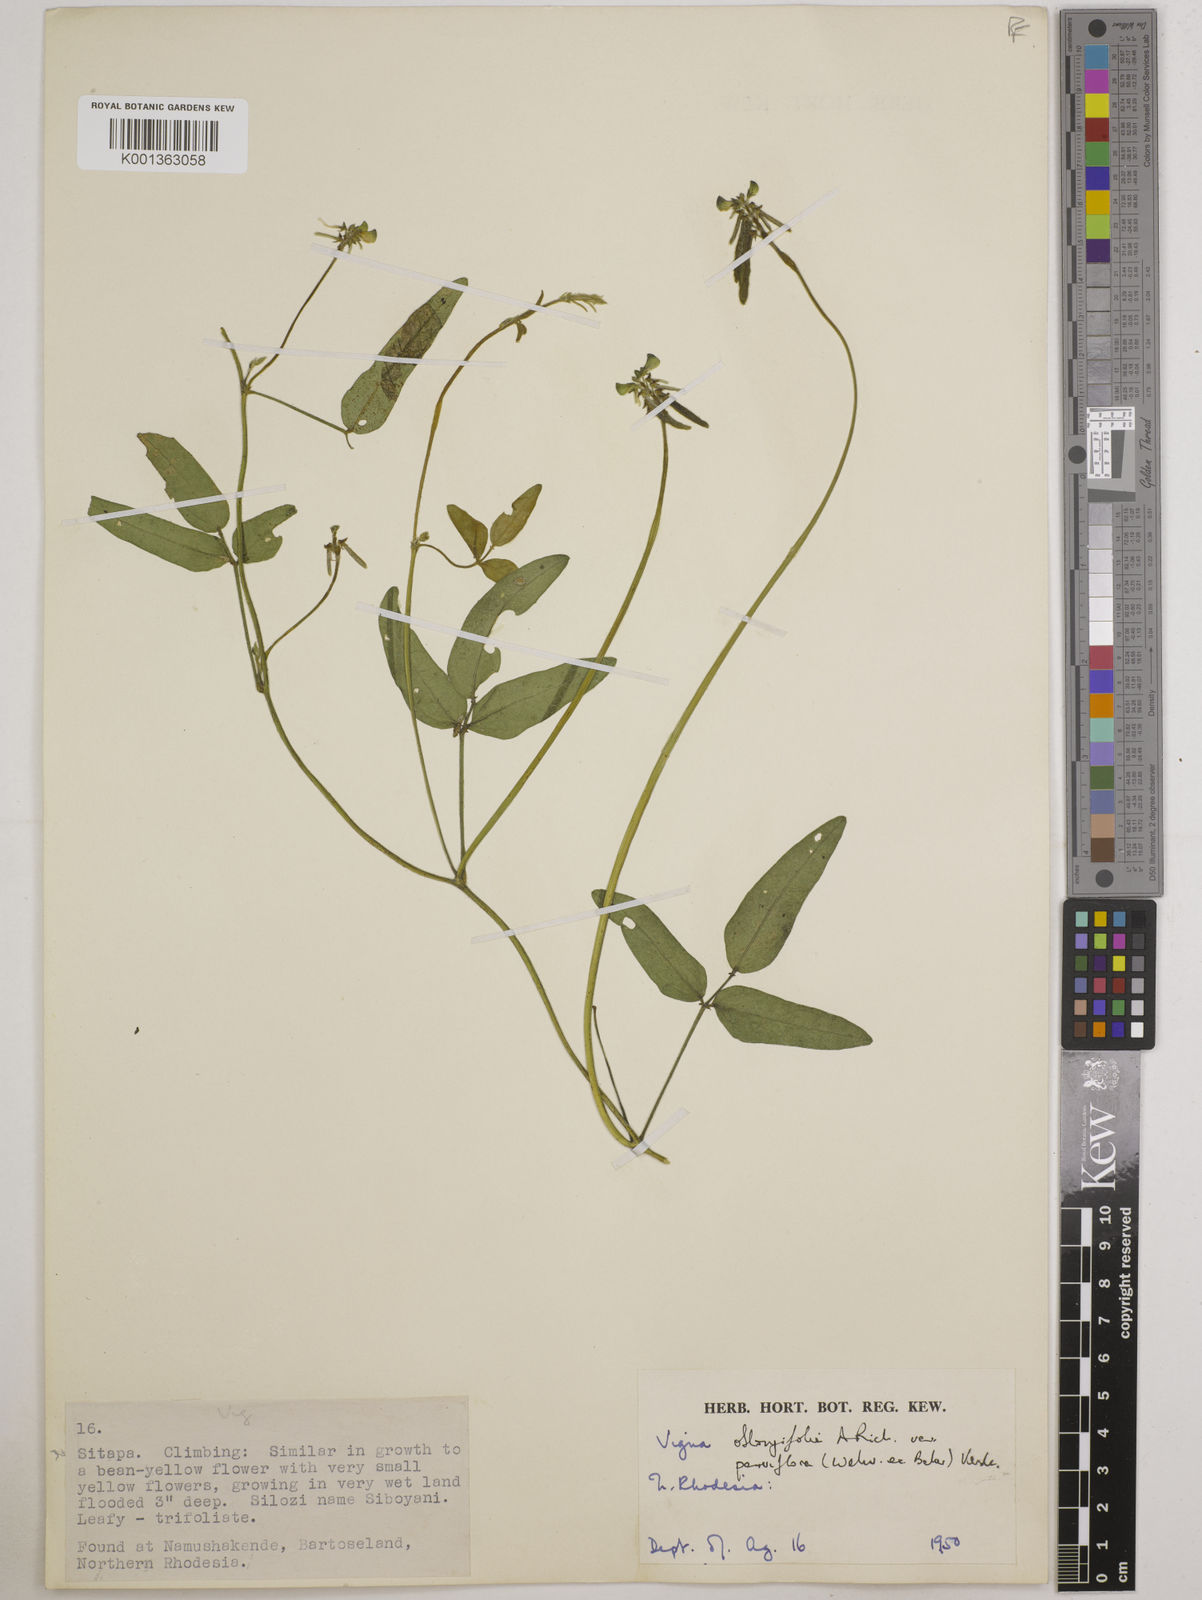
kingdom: Plantae
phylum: Tracheophyta
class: Magnoliopsida
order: Fabales
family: Fabaceae
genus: Vigna
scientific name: Vigna
